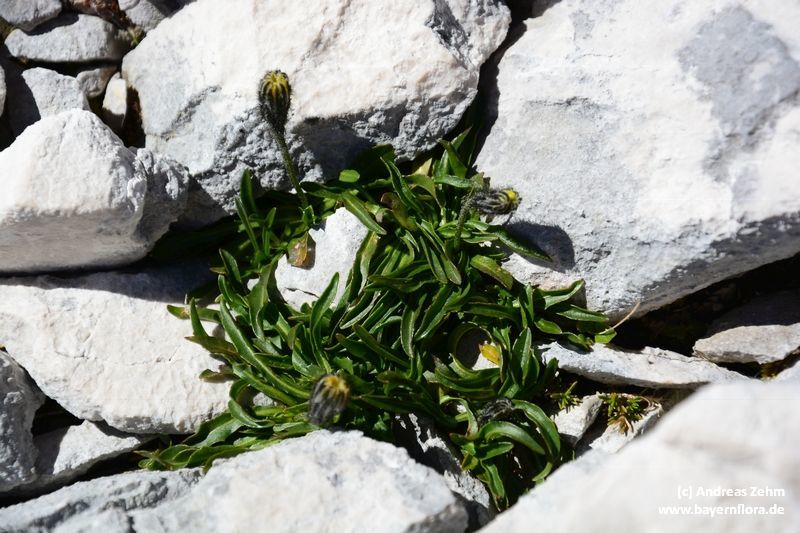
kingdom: Plantae
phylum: Tracheophyta
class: Magnoliopsida
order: Asterales
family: Asteraceae
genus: Scorzoneroides
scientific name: Scorzoneroides montana
